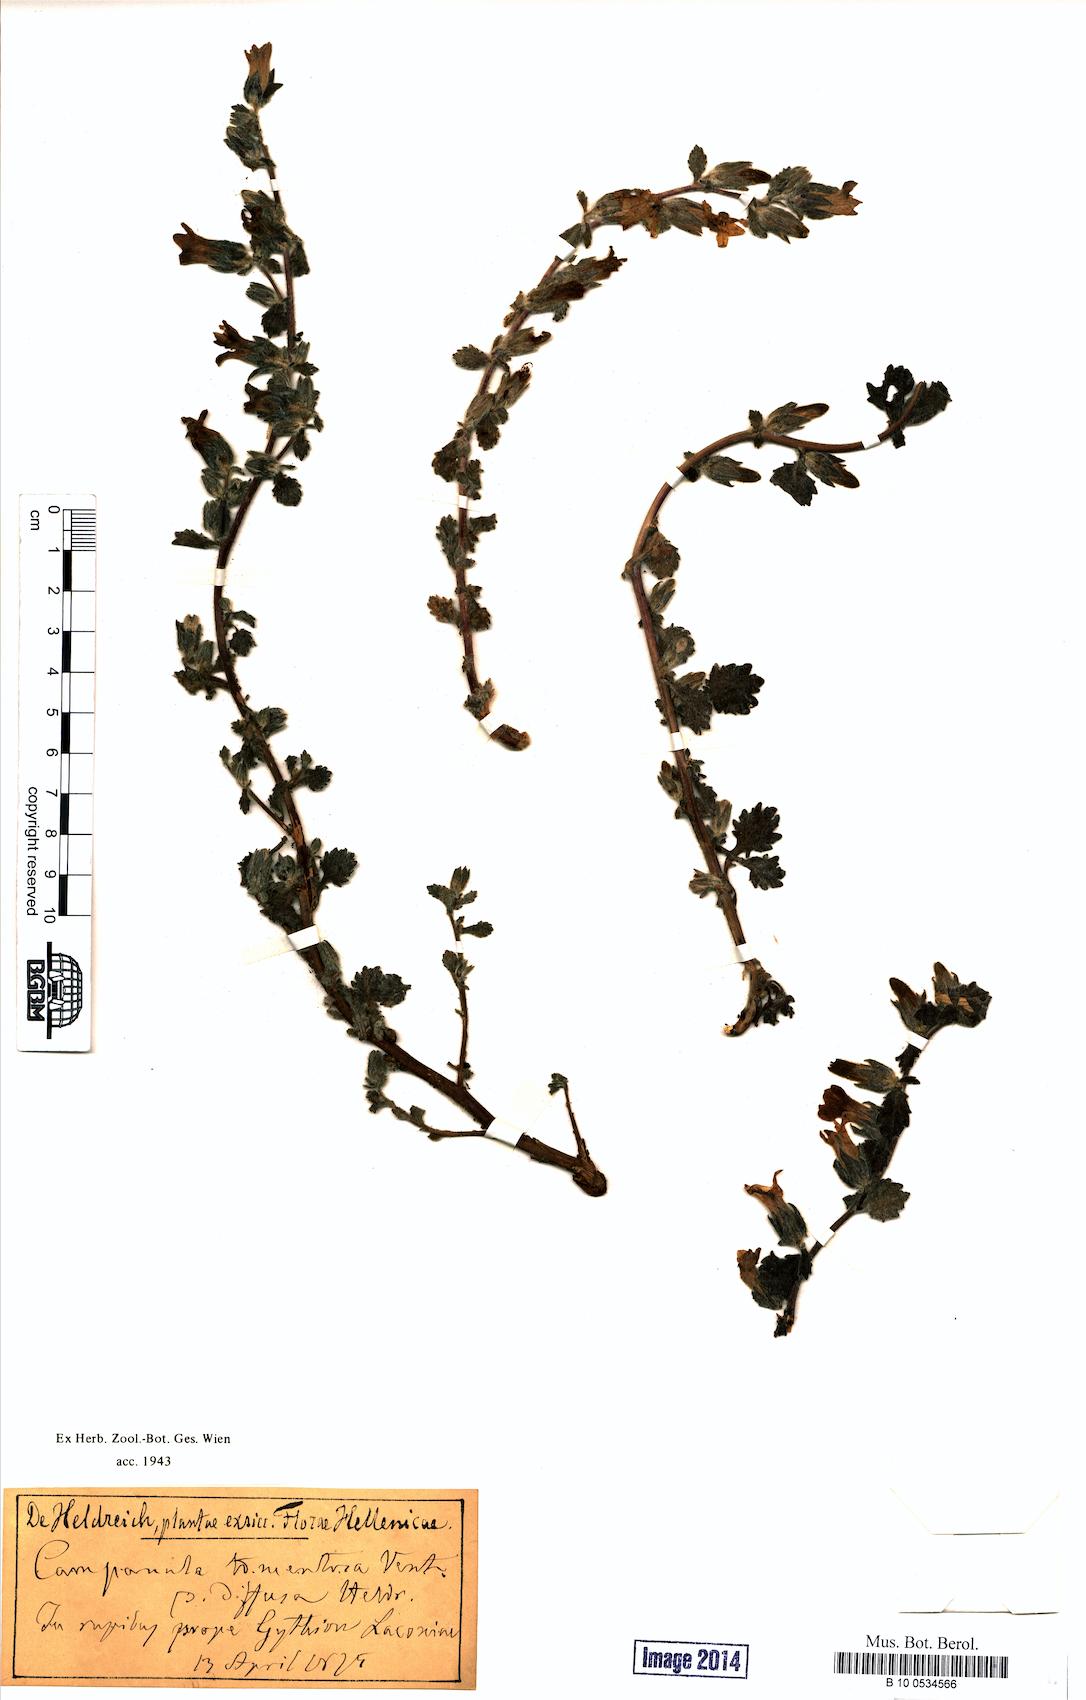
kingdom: Plantae
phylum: Tracheophyta
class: Magnoliopsida
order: Asterales
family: Campanulaceae
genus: Campanula
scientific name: Campanula celsii
